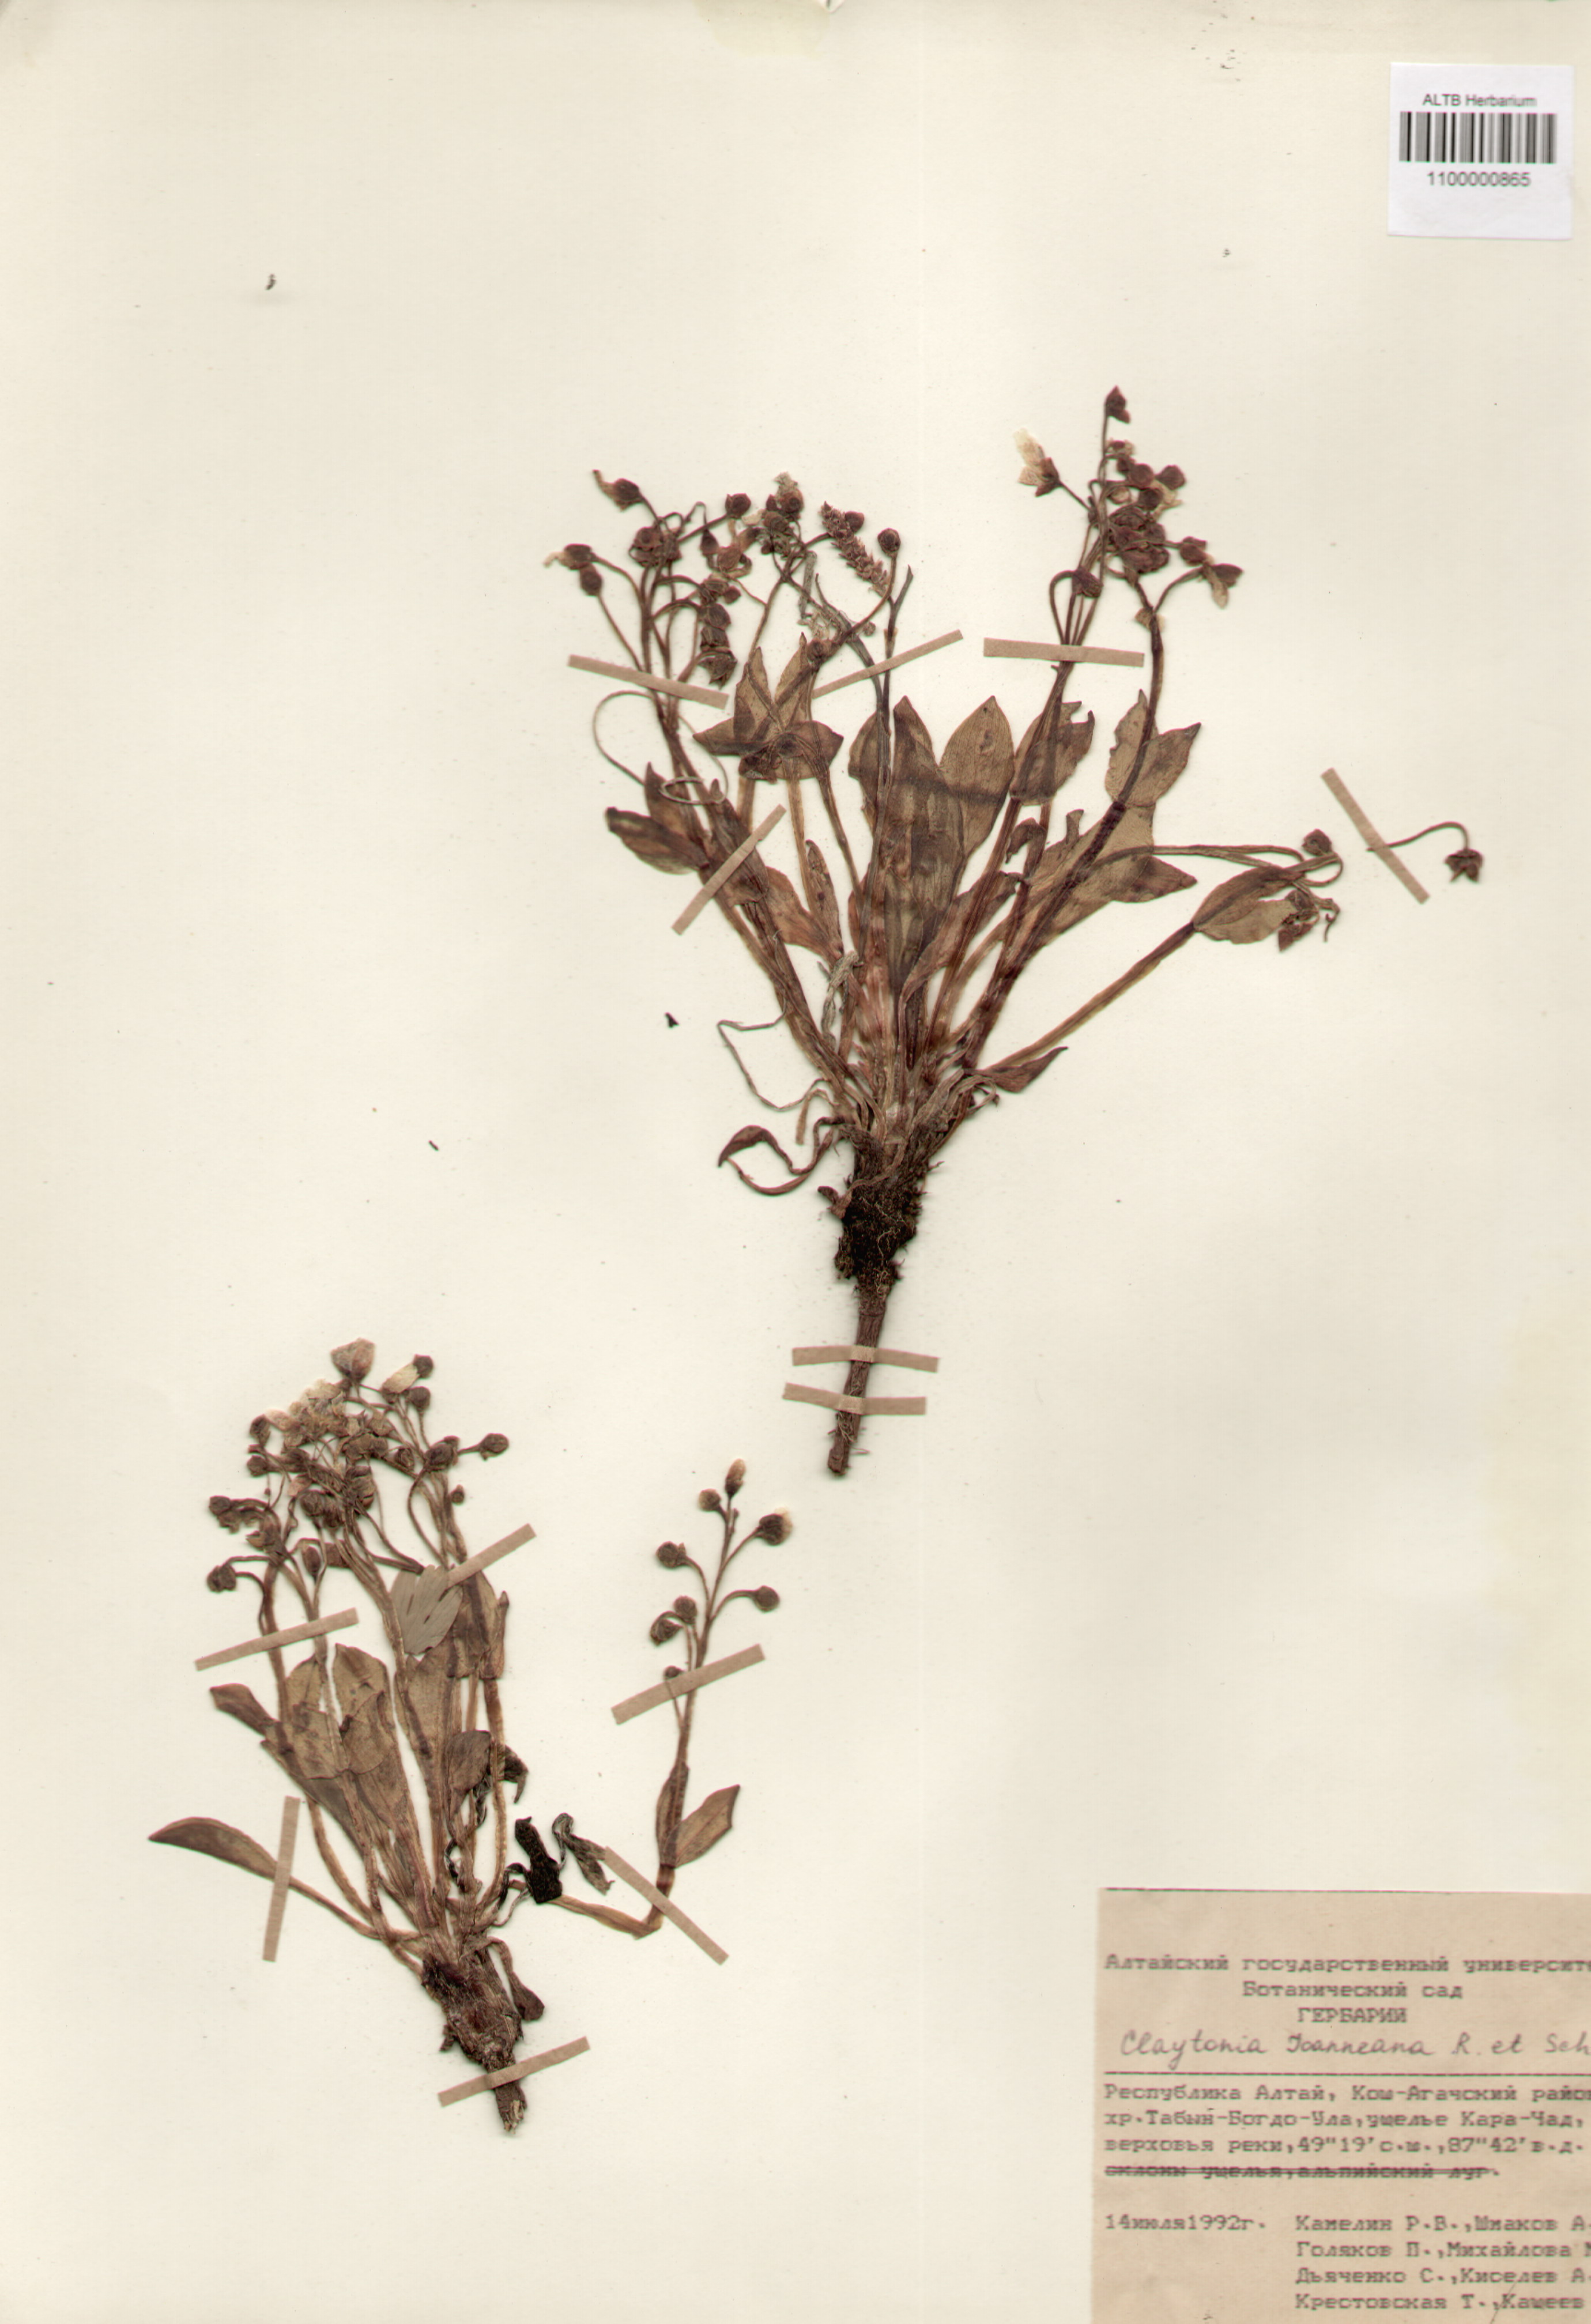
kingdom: Plantae
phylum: Tracheophyta
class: Magnoliopsida
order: Caryophyllales
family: Montiaceae
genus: Claytonia
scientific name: Claytonia joanneana
